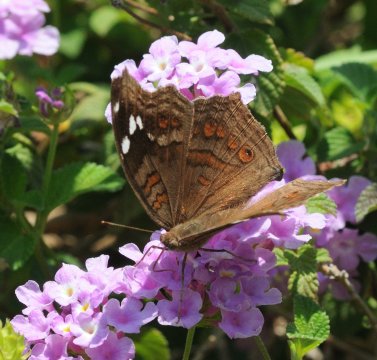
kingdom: Animalia
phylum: Arthropoda
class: Insecta
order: Lepidoptera
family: Nymphalidae
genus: Junonia
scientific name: Junonia natalica
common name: Natal Pansy
